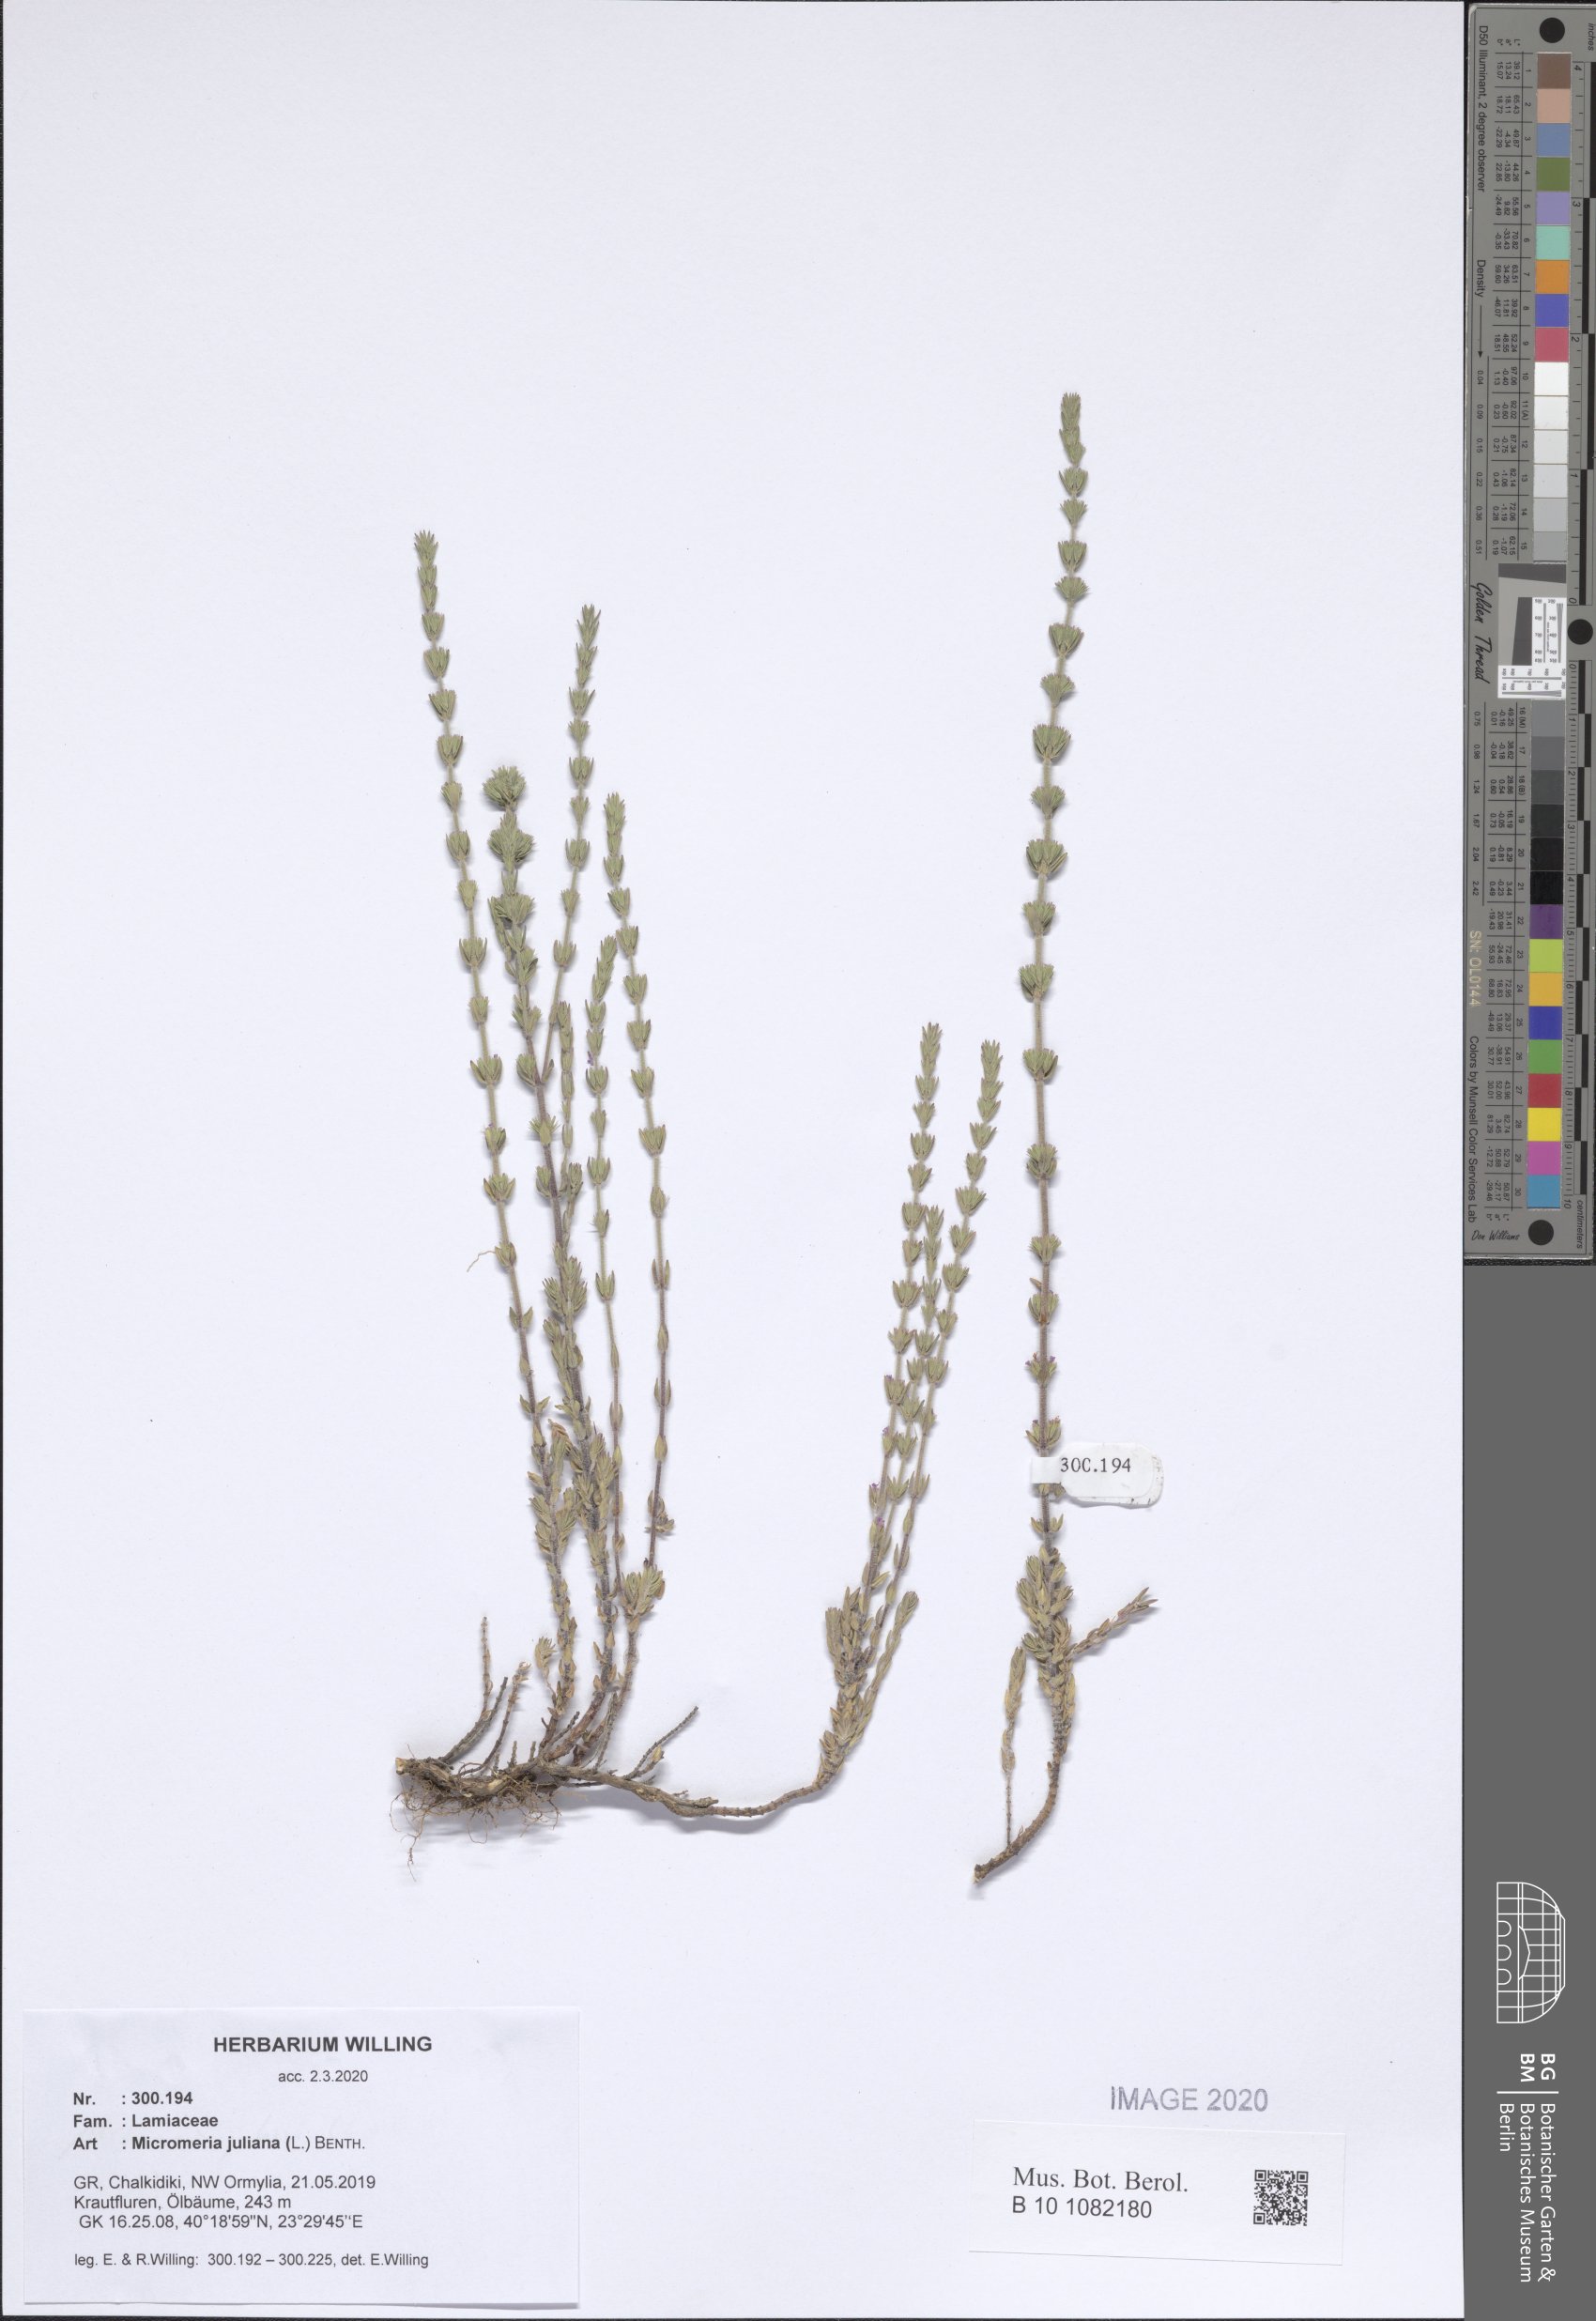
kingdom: Plantae
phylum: Tracheophyta
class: Magnoliopsida
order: Lamiales
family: Lamiaceae
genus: Micromeria
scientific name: Micromeria juliana
